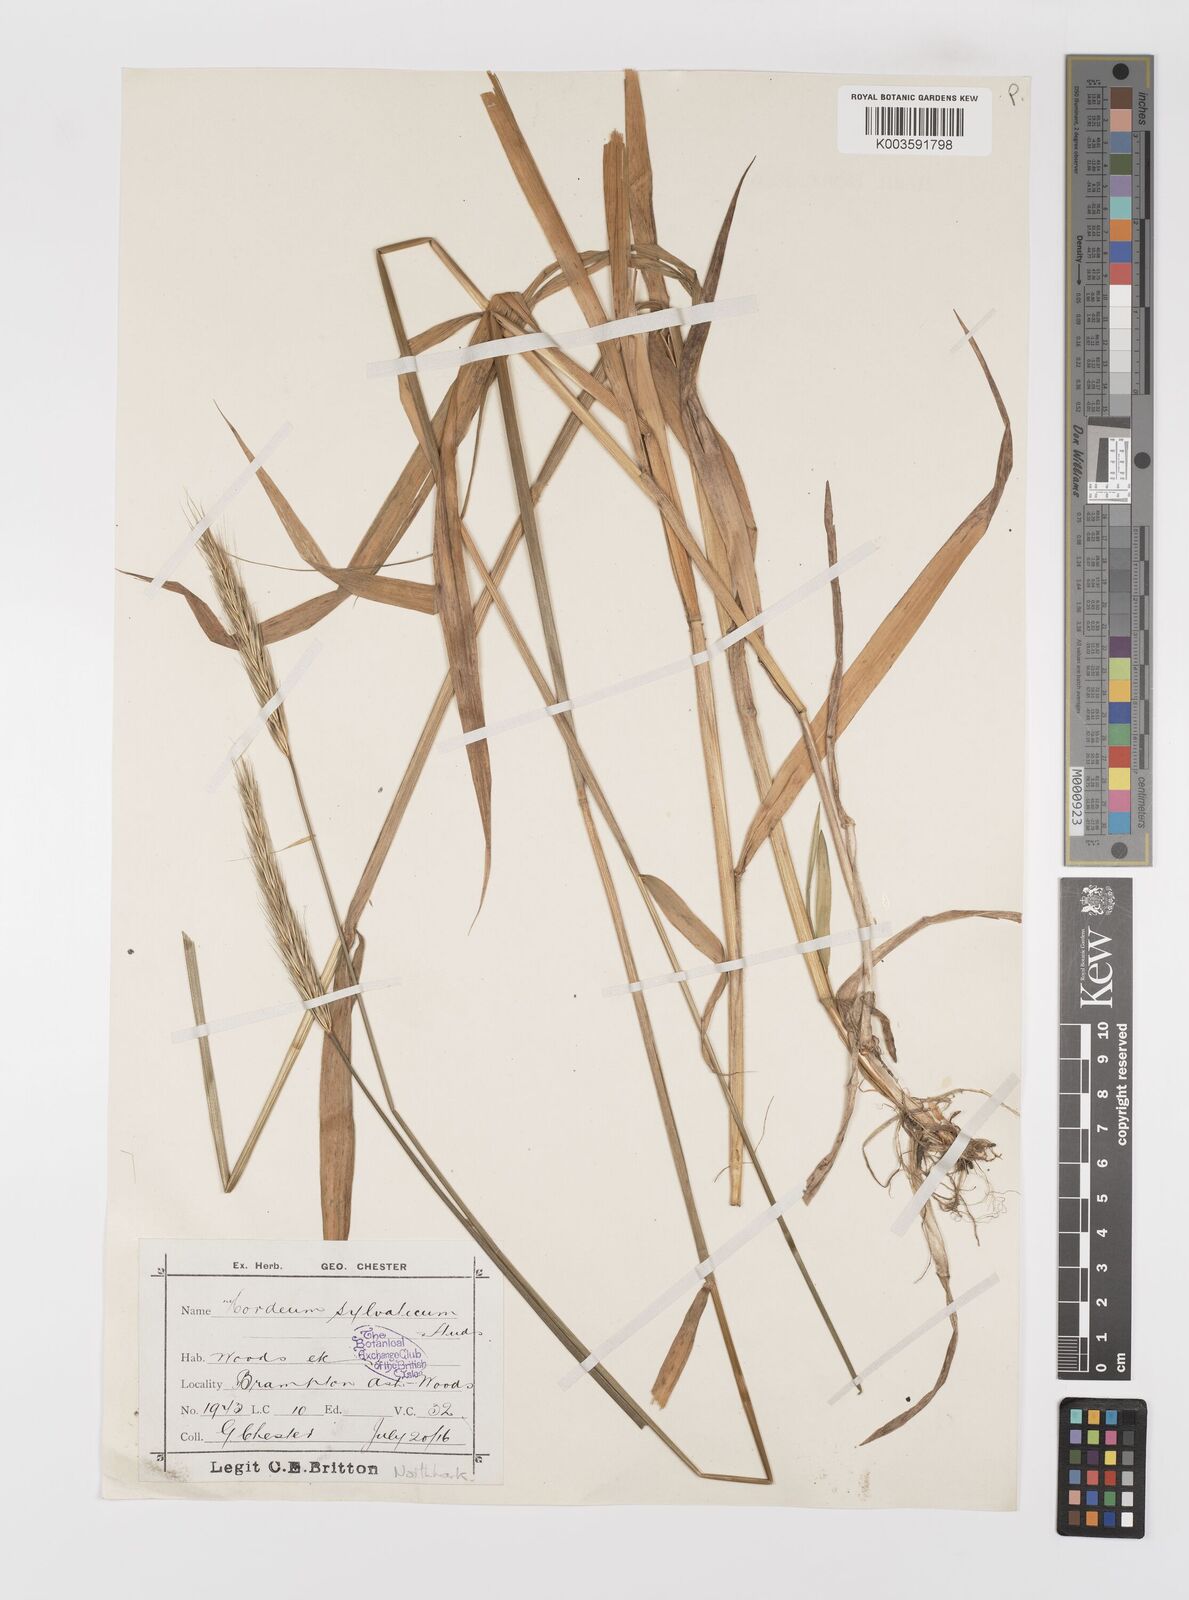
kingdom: Plantae
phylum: Tracheophyta
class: Liliopsida
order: Poales
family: Poaceae
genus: Hordelymus
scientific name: Hordelymus europaeus
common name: Wood-barley
